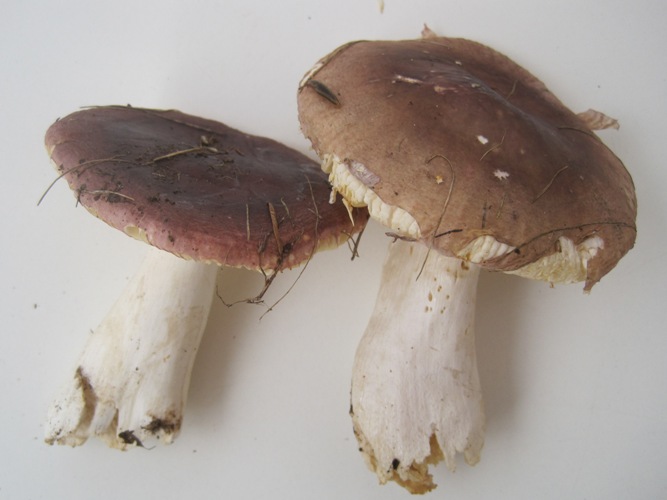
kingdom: Fungi
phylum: Basidiomycota
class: Agaricomycetes
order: Russulales
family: Russulaceae
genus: Russula
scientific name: Russula turci
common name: jod-skørhat
